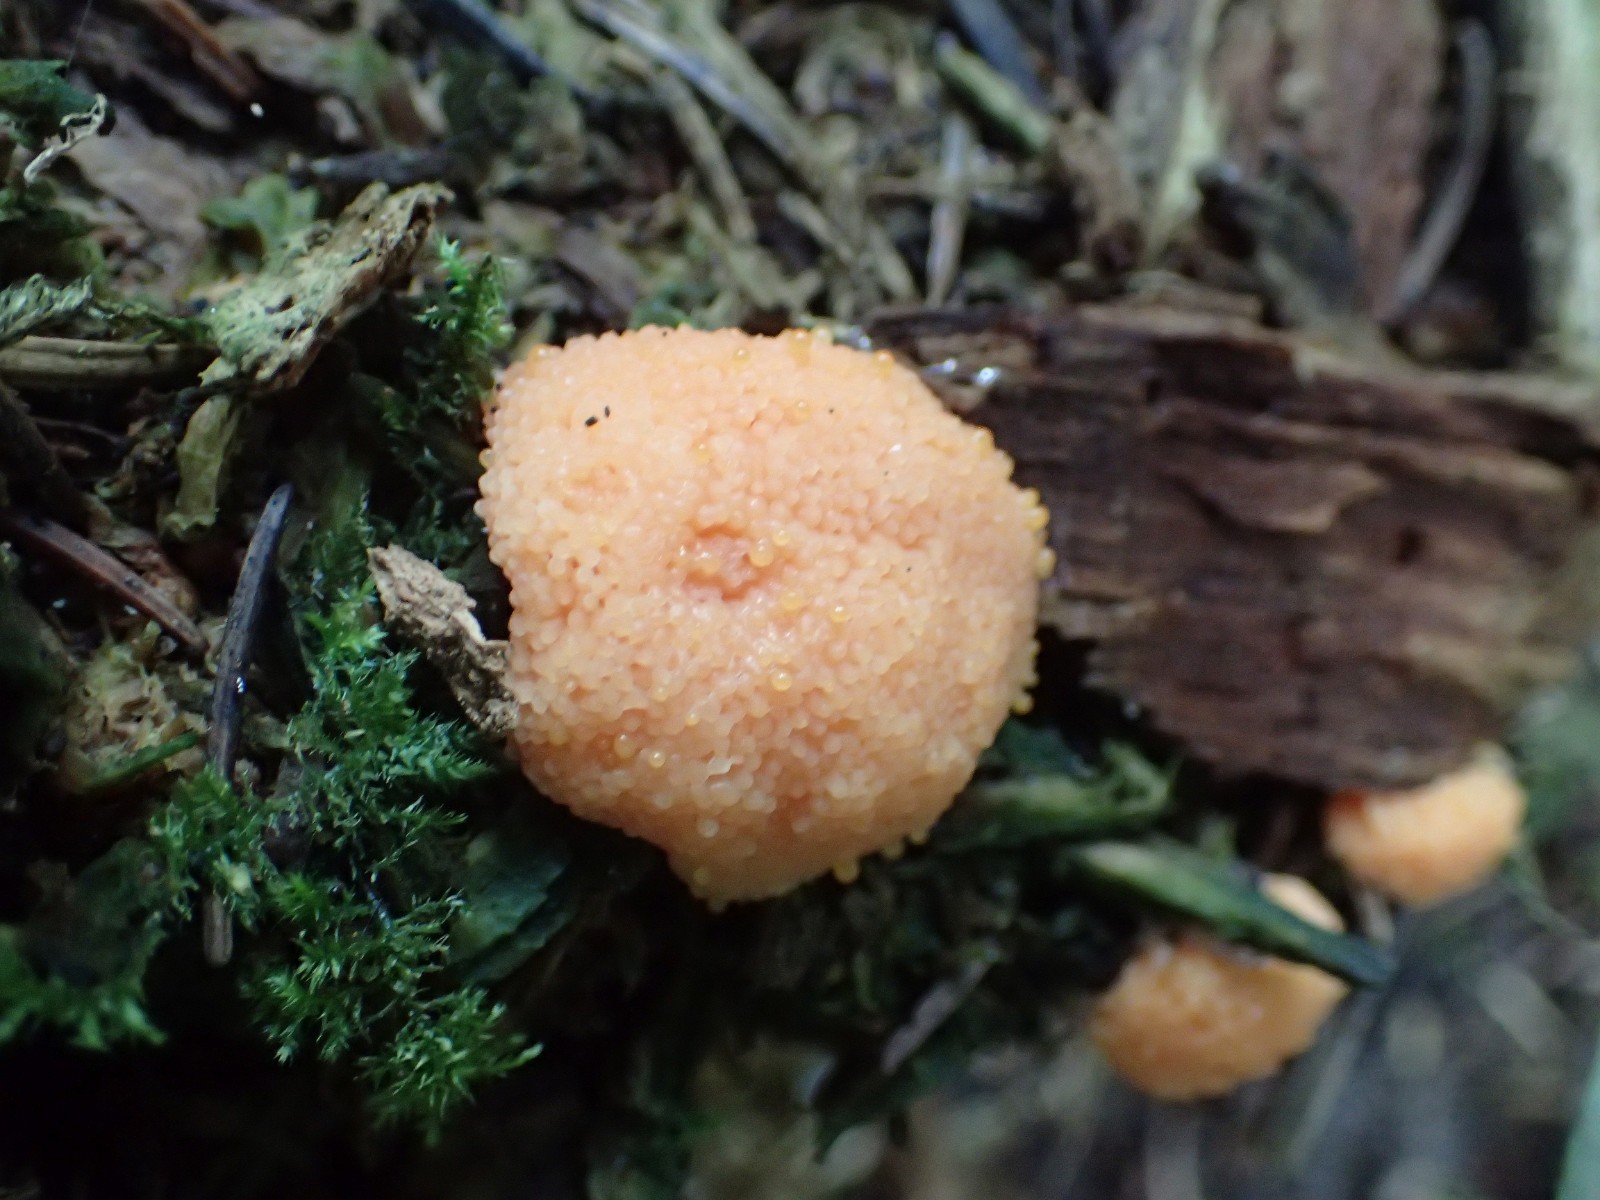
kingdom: Protozoa
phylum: Mycetozoa
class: Myxomycetes
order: Cribrariales
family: Tubiferaceae
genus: Tubifera
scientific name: Tubifera ferruginosa
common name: kanel-støvrør
